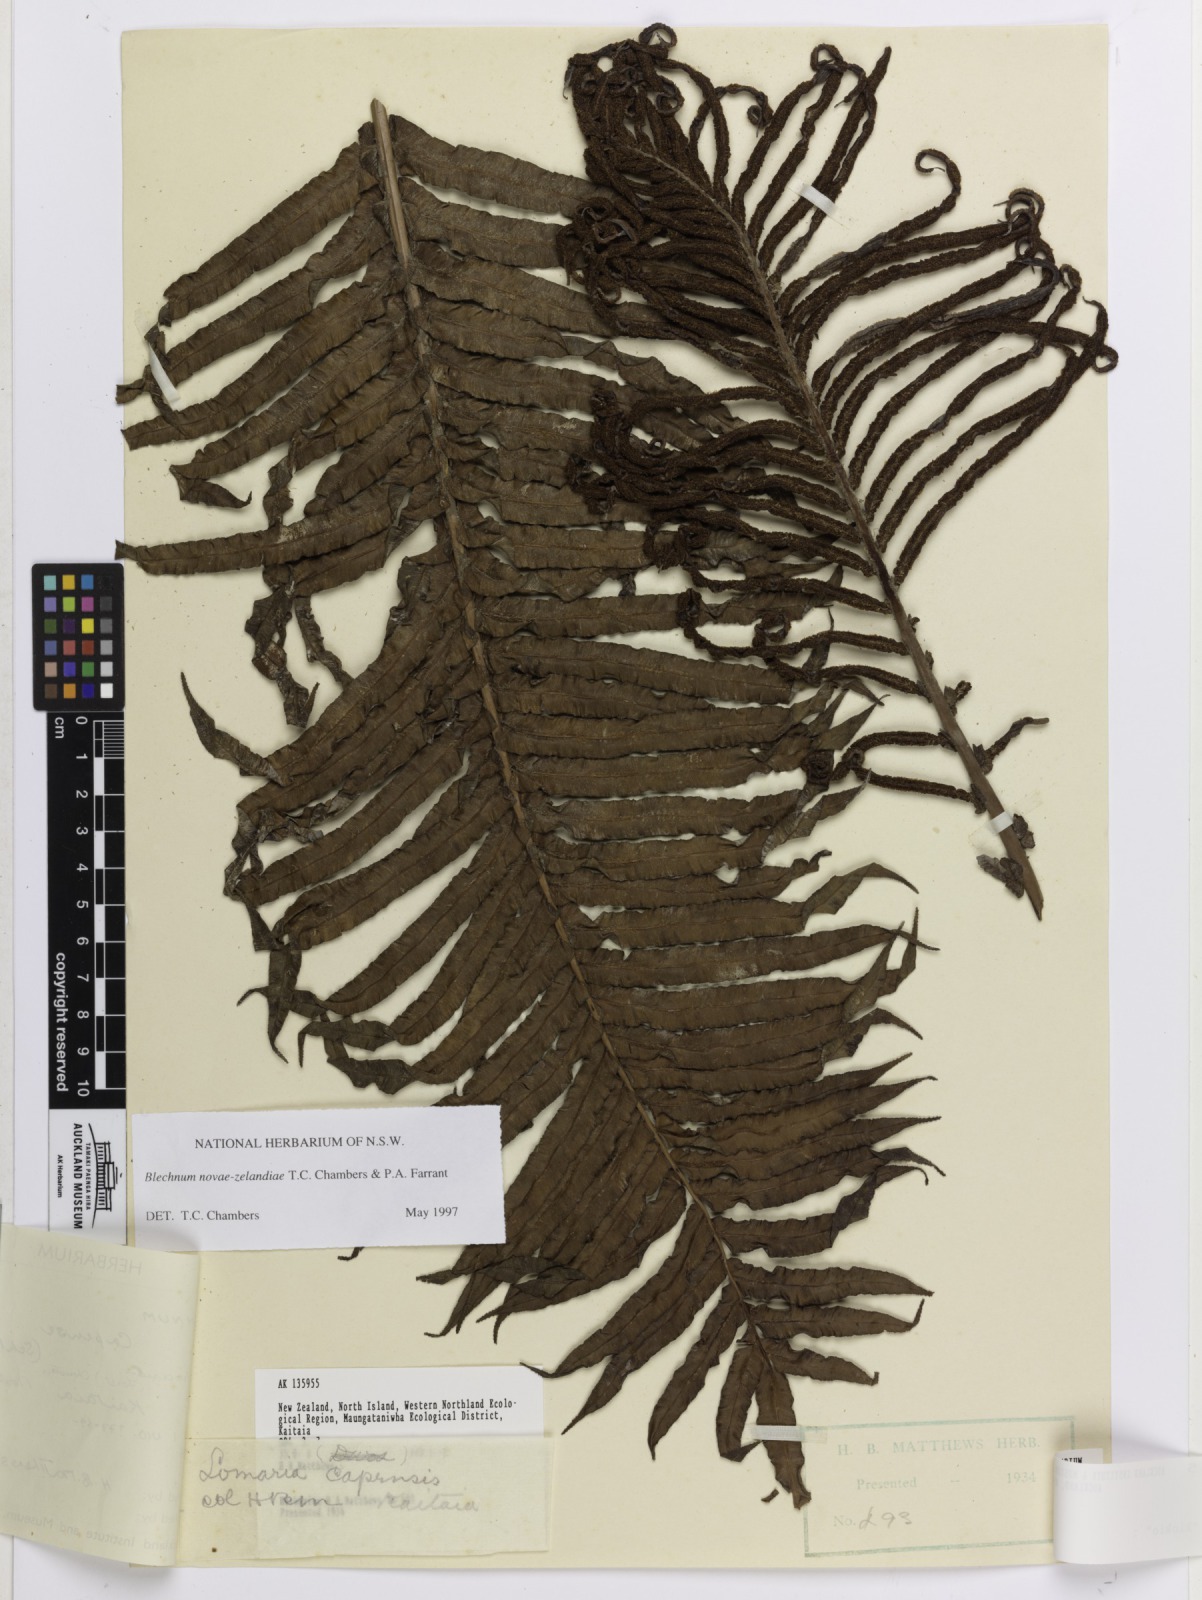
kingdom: Plantae
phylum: Tracheophyta
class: Polypodiopsida
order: Polypodiales
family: Blechnaceae
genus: Parablechnum
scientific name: Parablechnum novae-zelandiae
